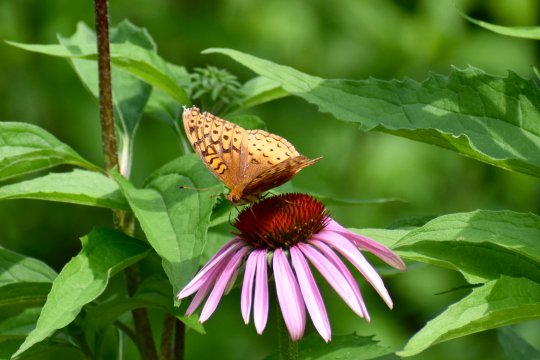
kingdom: Animalia
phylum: Arthropoda
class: Insecta
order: Lepidoptera
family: Nymphalidae
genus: Speyeria
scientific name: Speyeria cybele
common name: Great Spangled Fritillary
